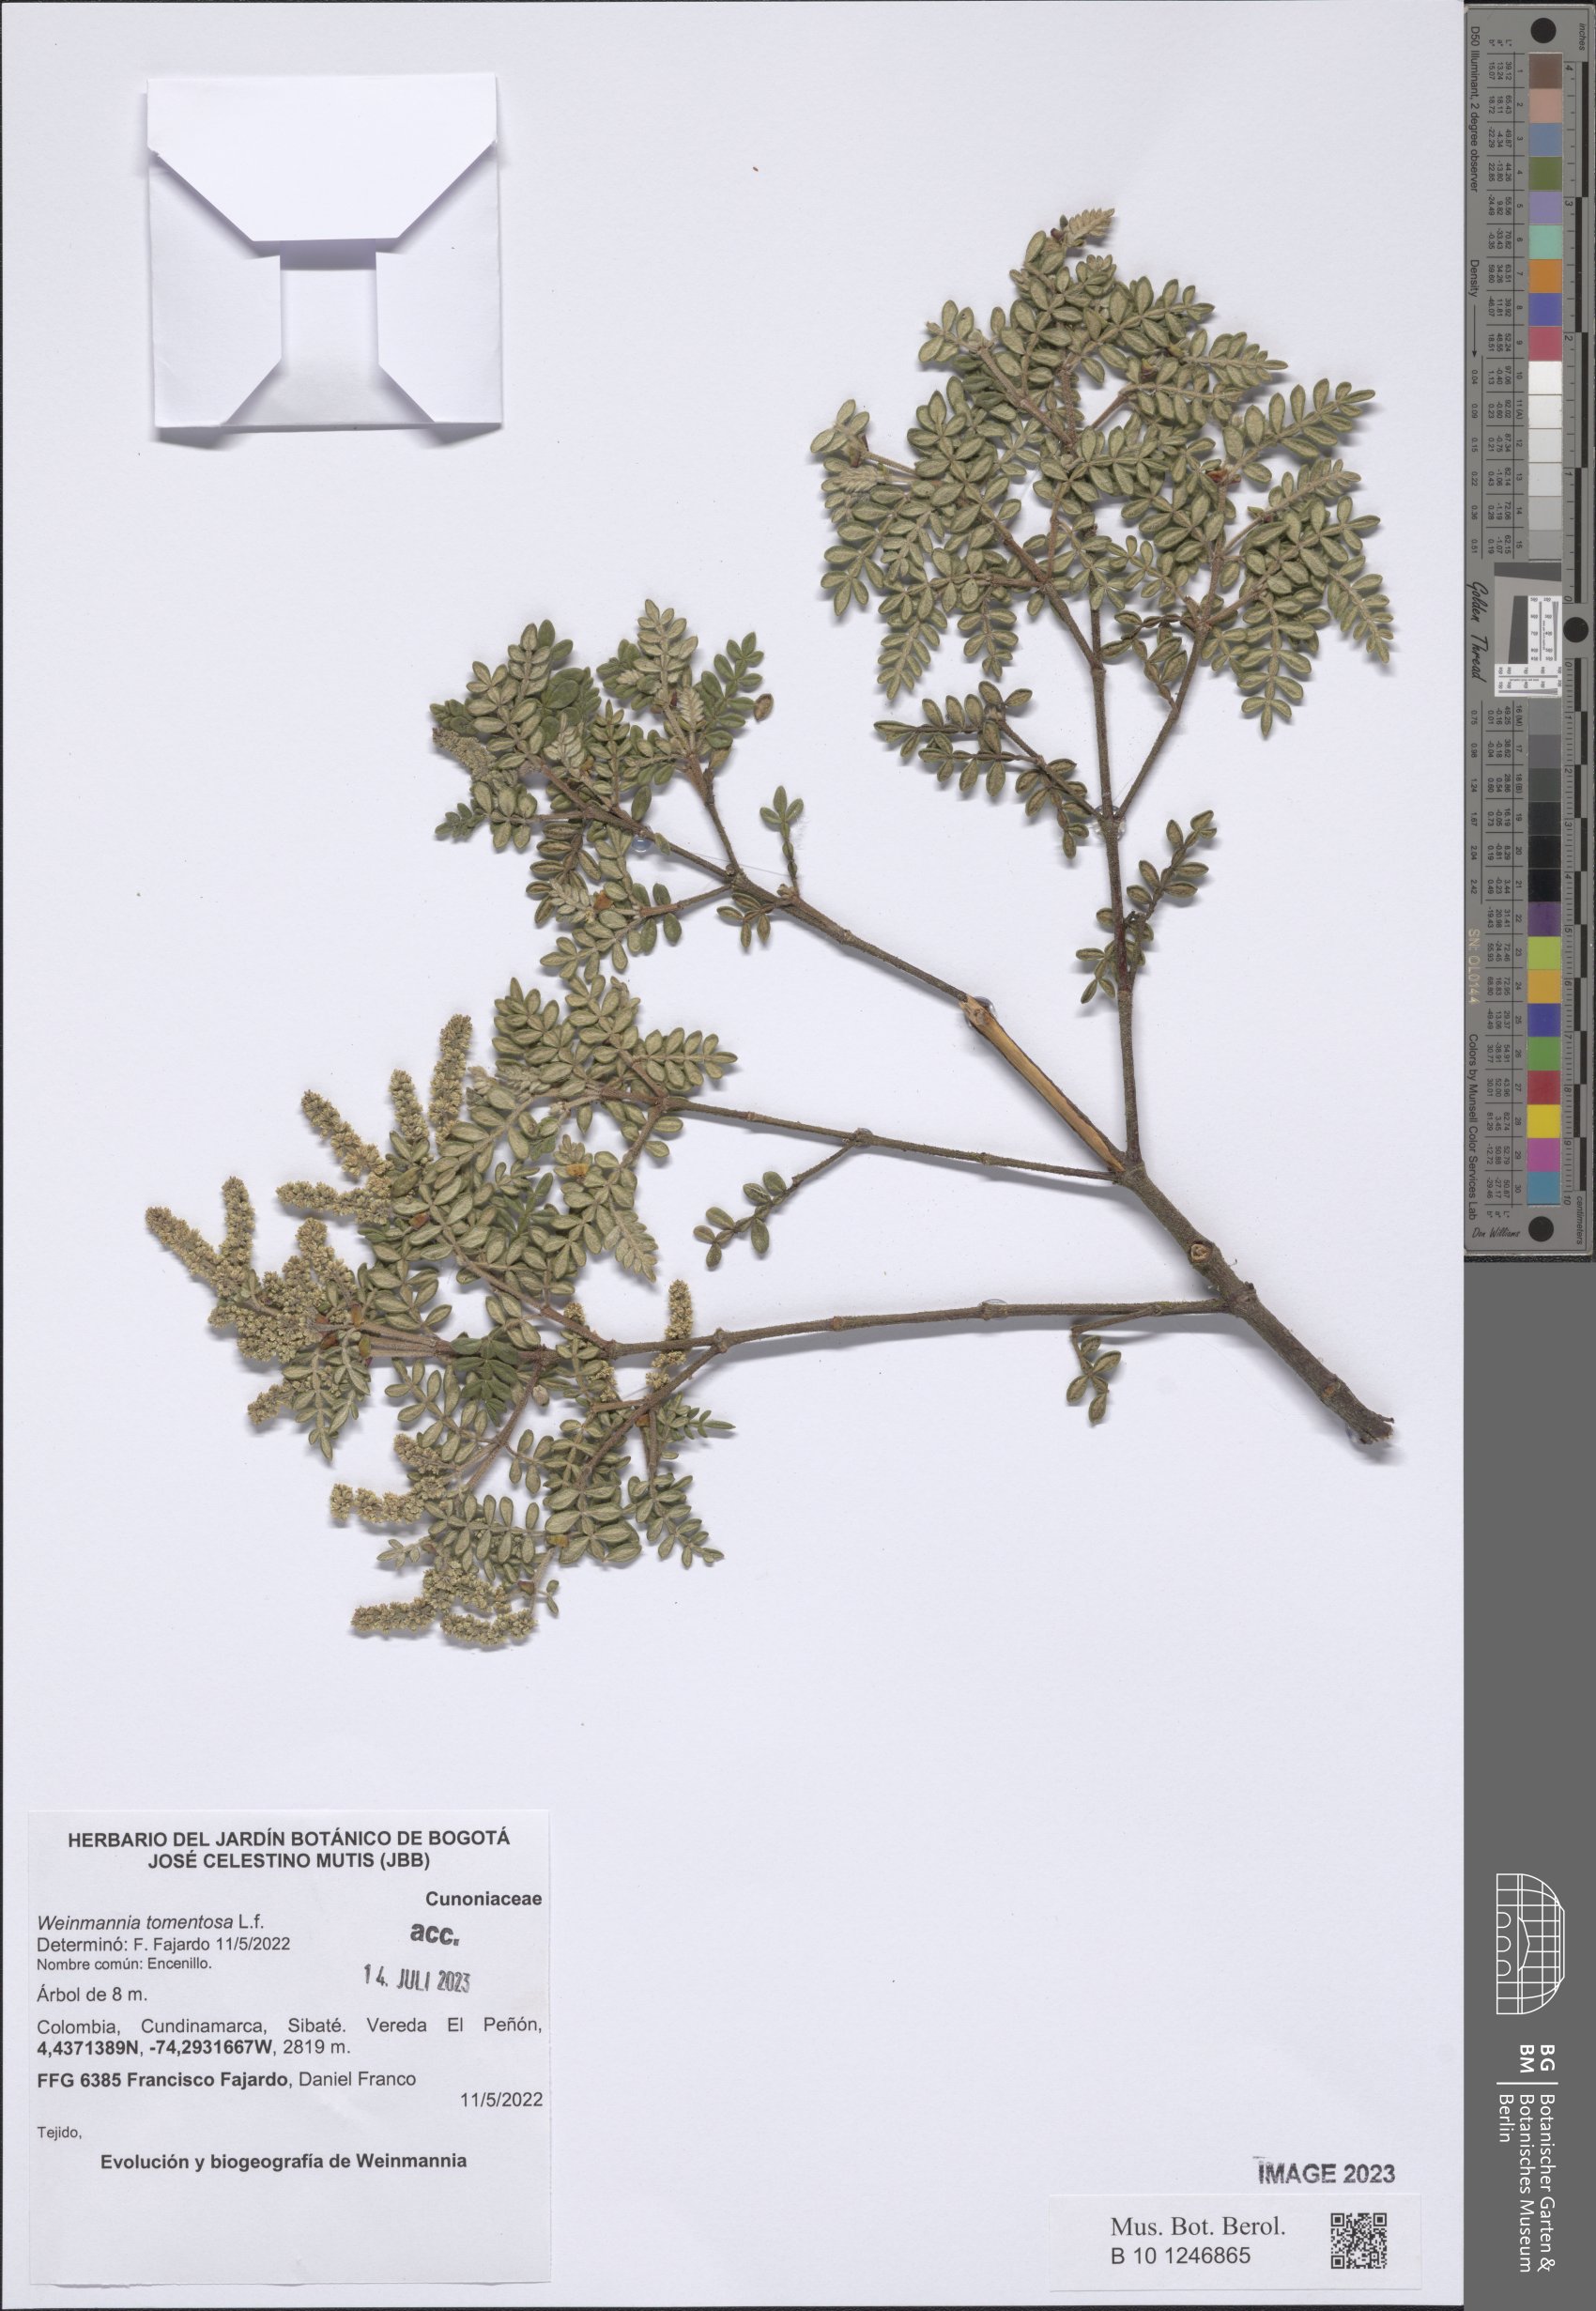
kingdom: Plantae
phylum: Tracheophyta
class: Magnoliopsida
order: Oxalidales
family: Cunoniaceae
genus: Weinmannia
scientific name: Weinmannia tomentosa
